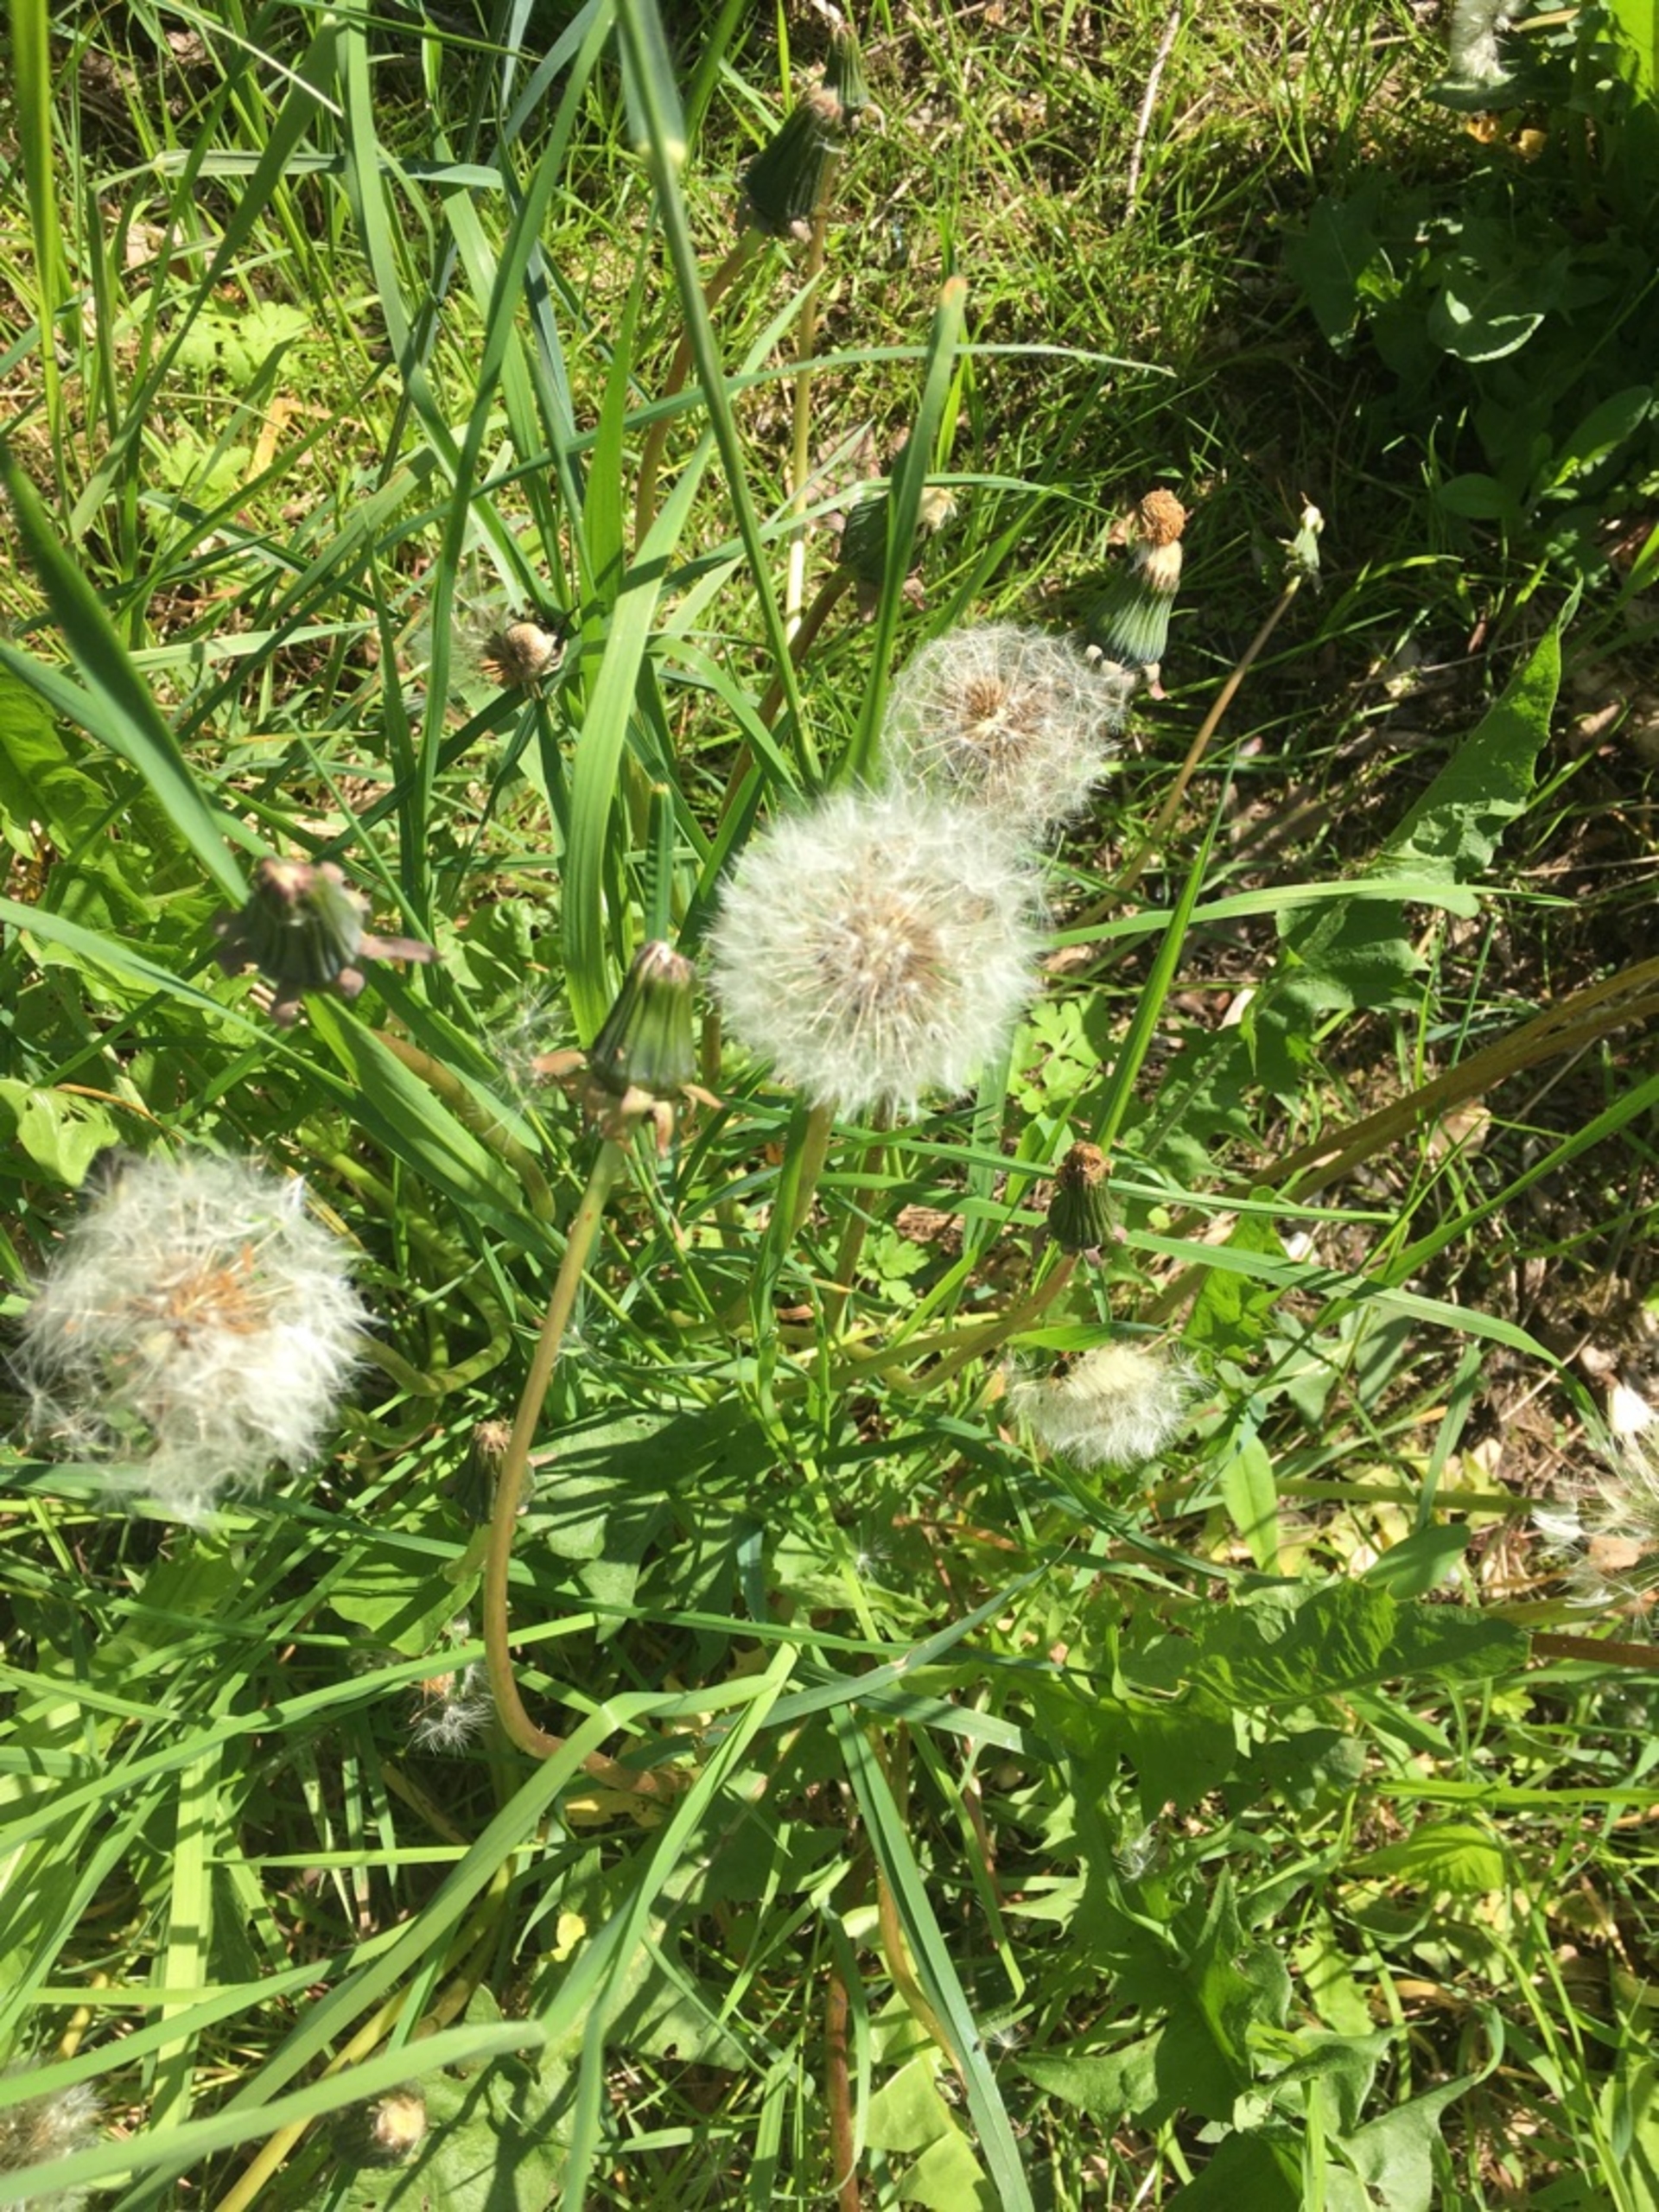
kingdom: Plantae
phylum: Tracheophyta
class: Magnoliopsida
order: Asterales
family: Asteraceae
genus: Taraxacum
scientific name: Taraxacum
